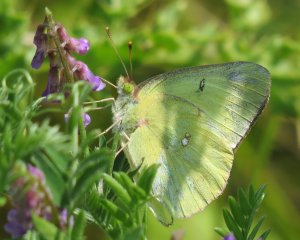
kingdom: Animalia
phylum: Arthropoda
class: Insecta
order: Lepidoptera
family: Pieridae
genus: Colias
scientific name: Colias philodice
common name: Clouded Sulphur
